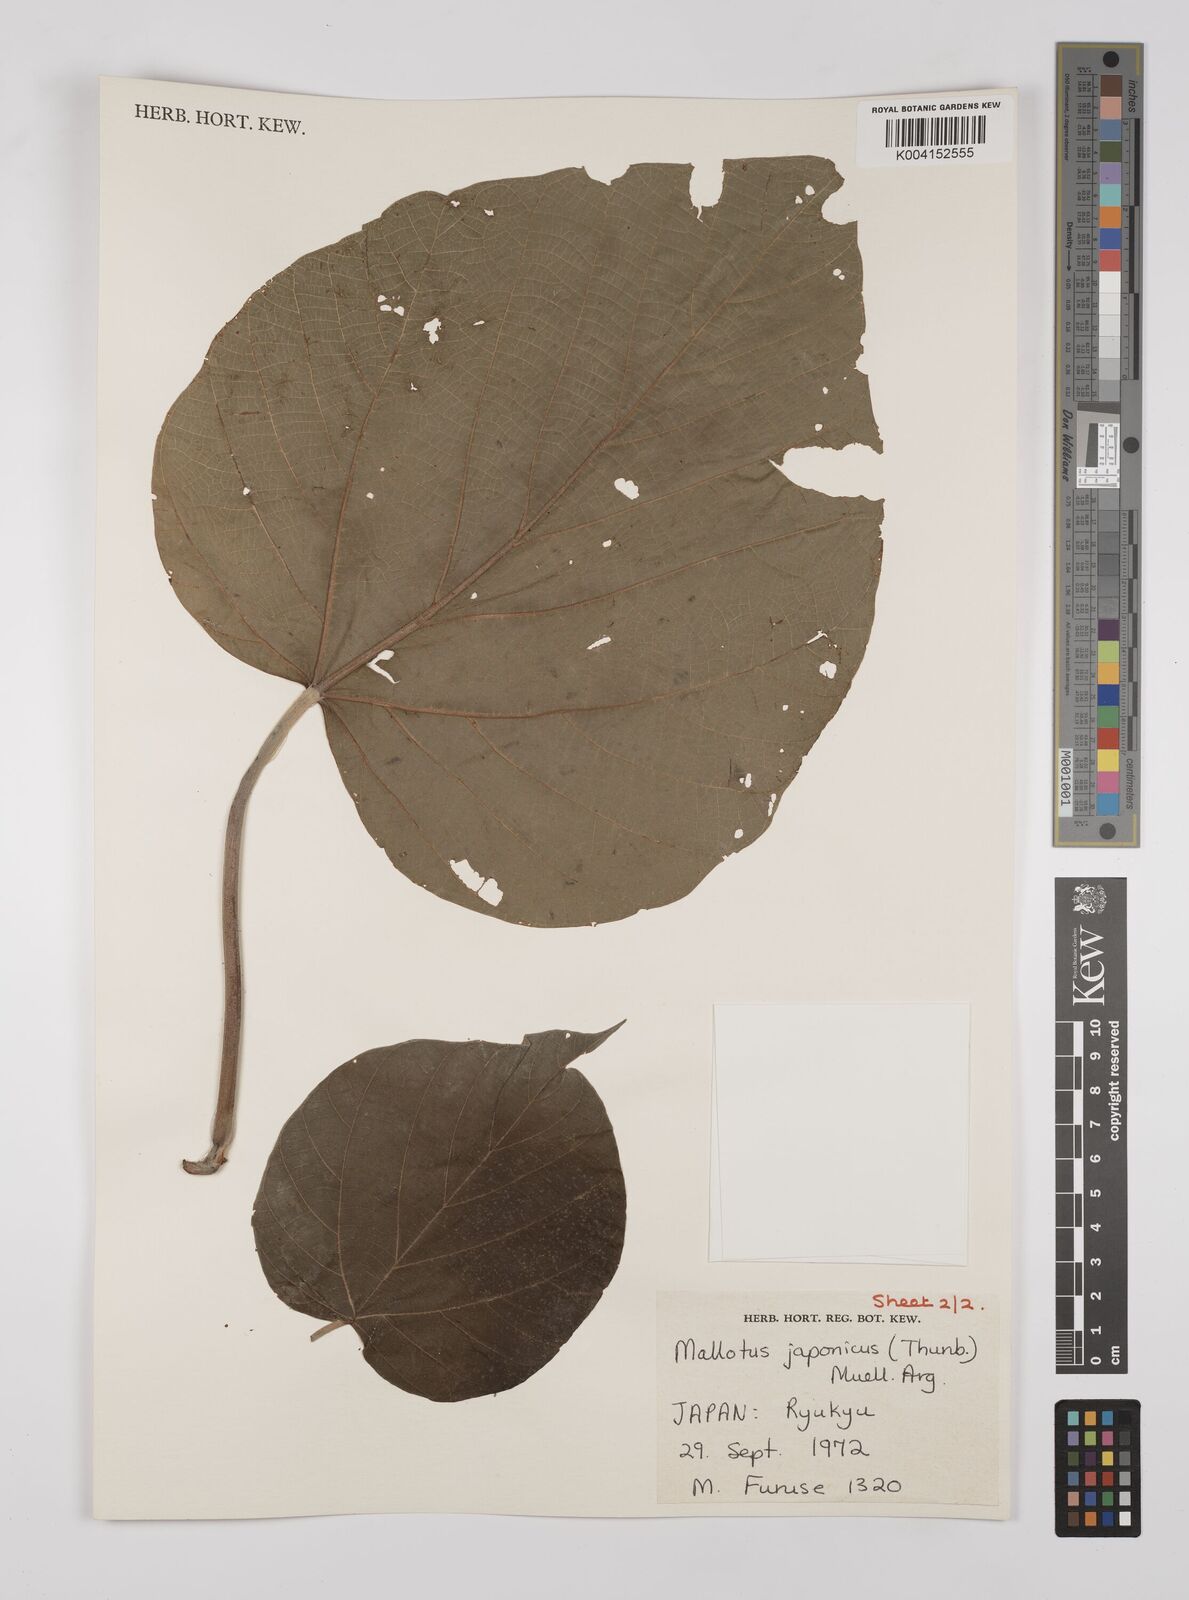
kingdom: Plantae
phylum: Tracheophyta
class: Magnoliopsida
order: Malpighiales
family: Euphorbiaceae
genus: Mallotus
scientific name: Mallotus japonicus
